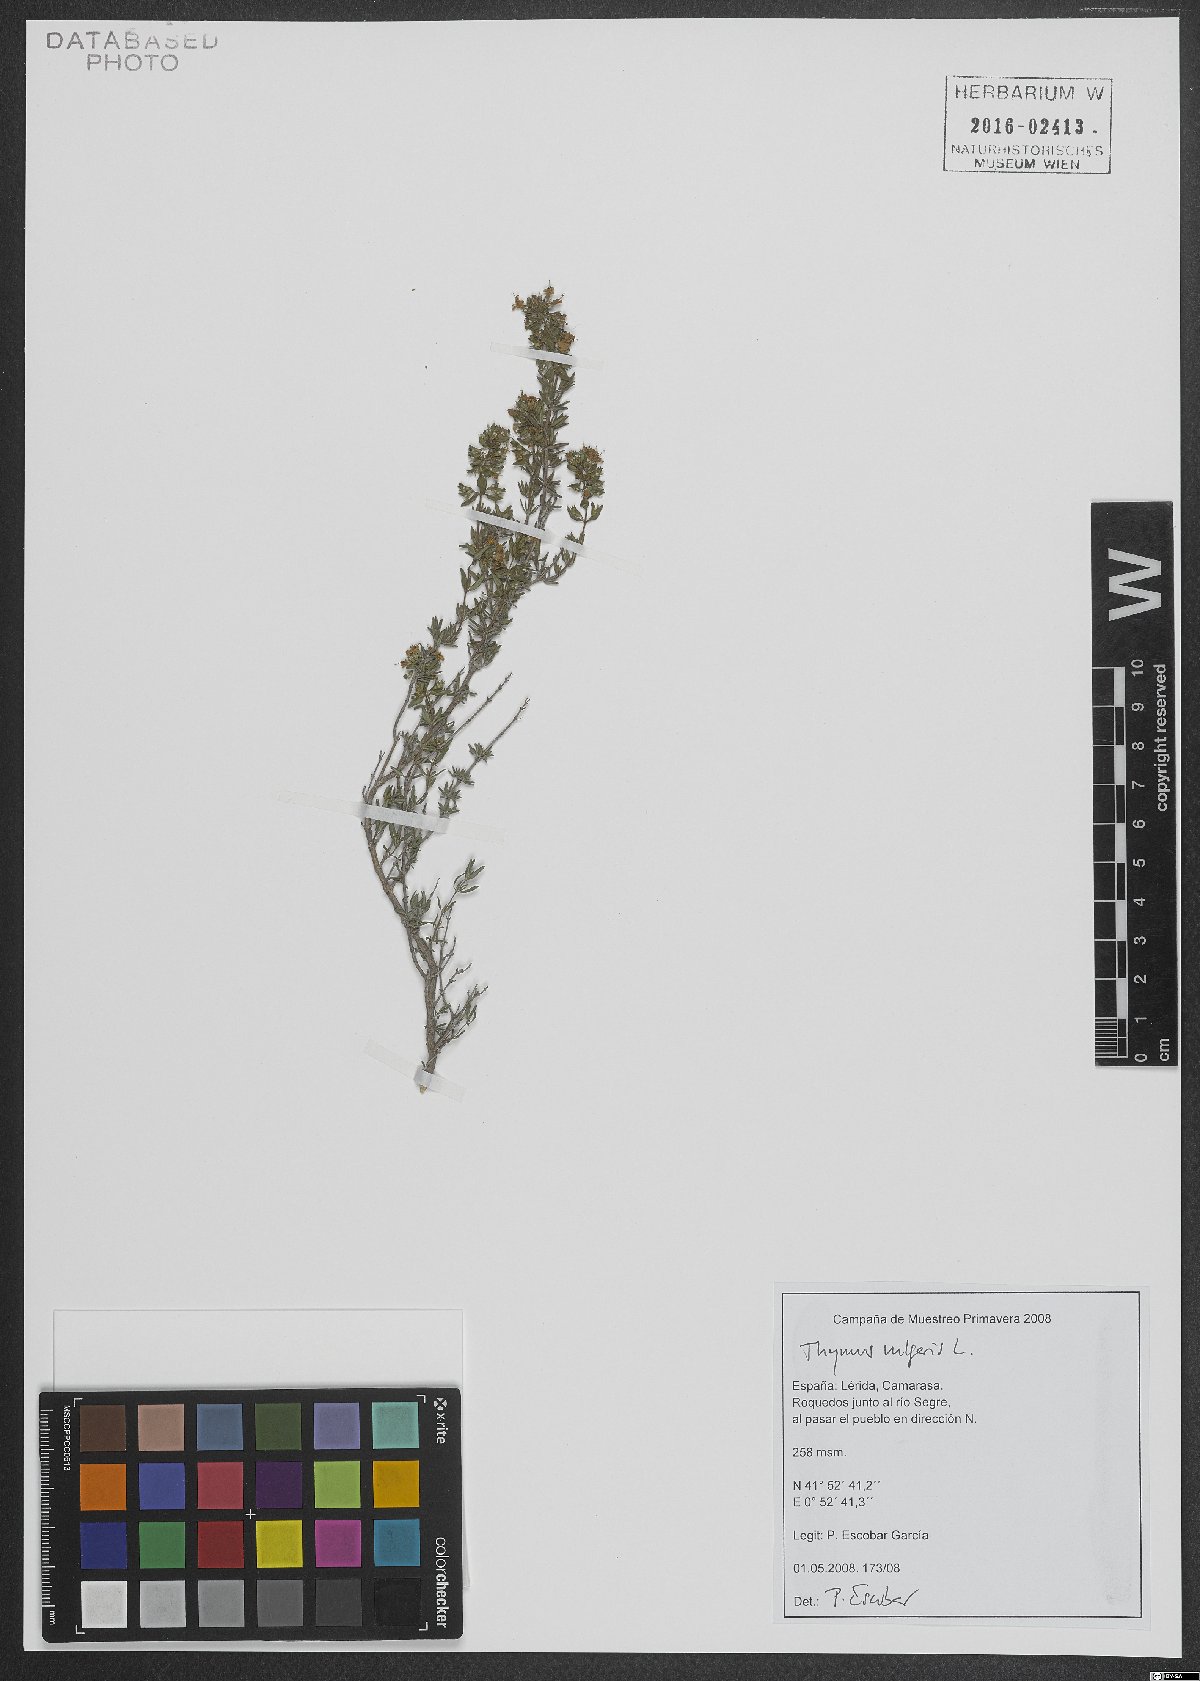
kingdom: Plantae
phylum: Tracheophyta
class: Magnoliopsida
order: Lamiales
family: Lamiaceae
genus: Thymus
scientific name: Thymus vulgaris
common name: Garden thyme
